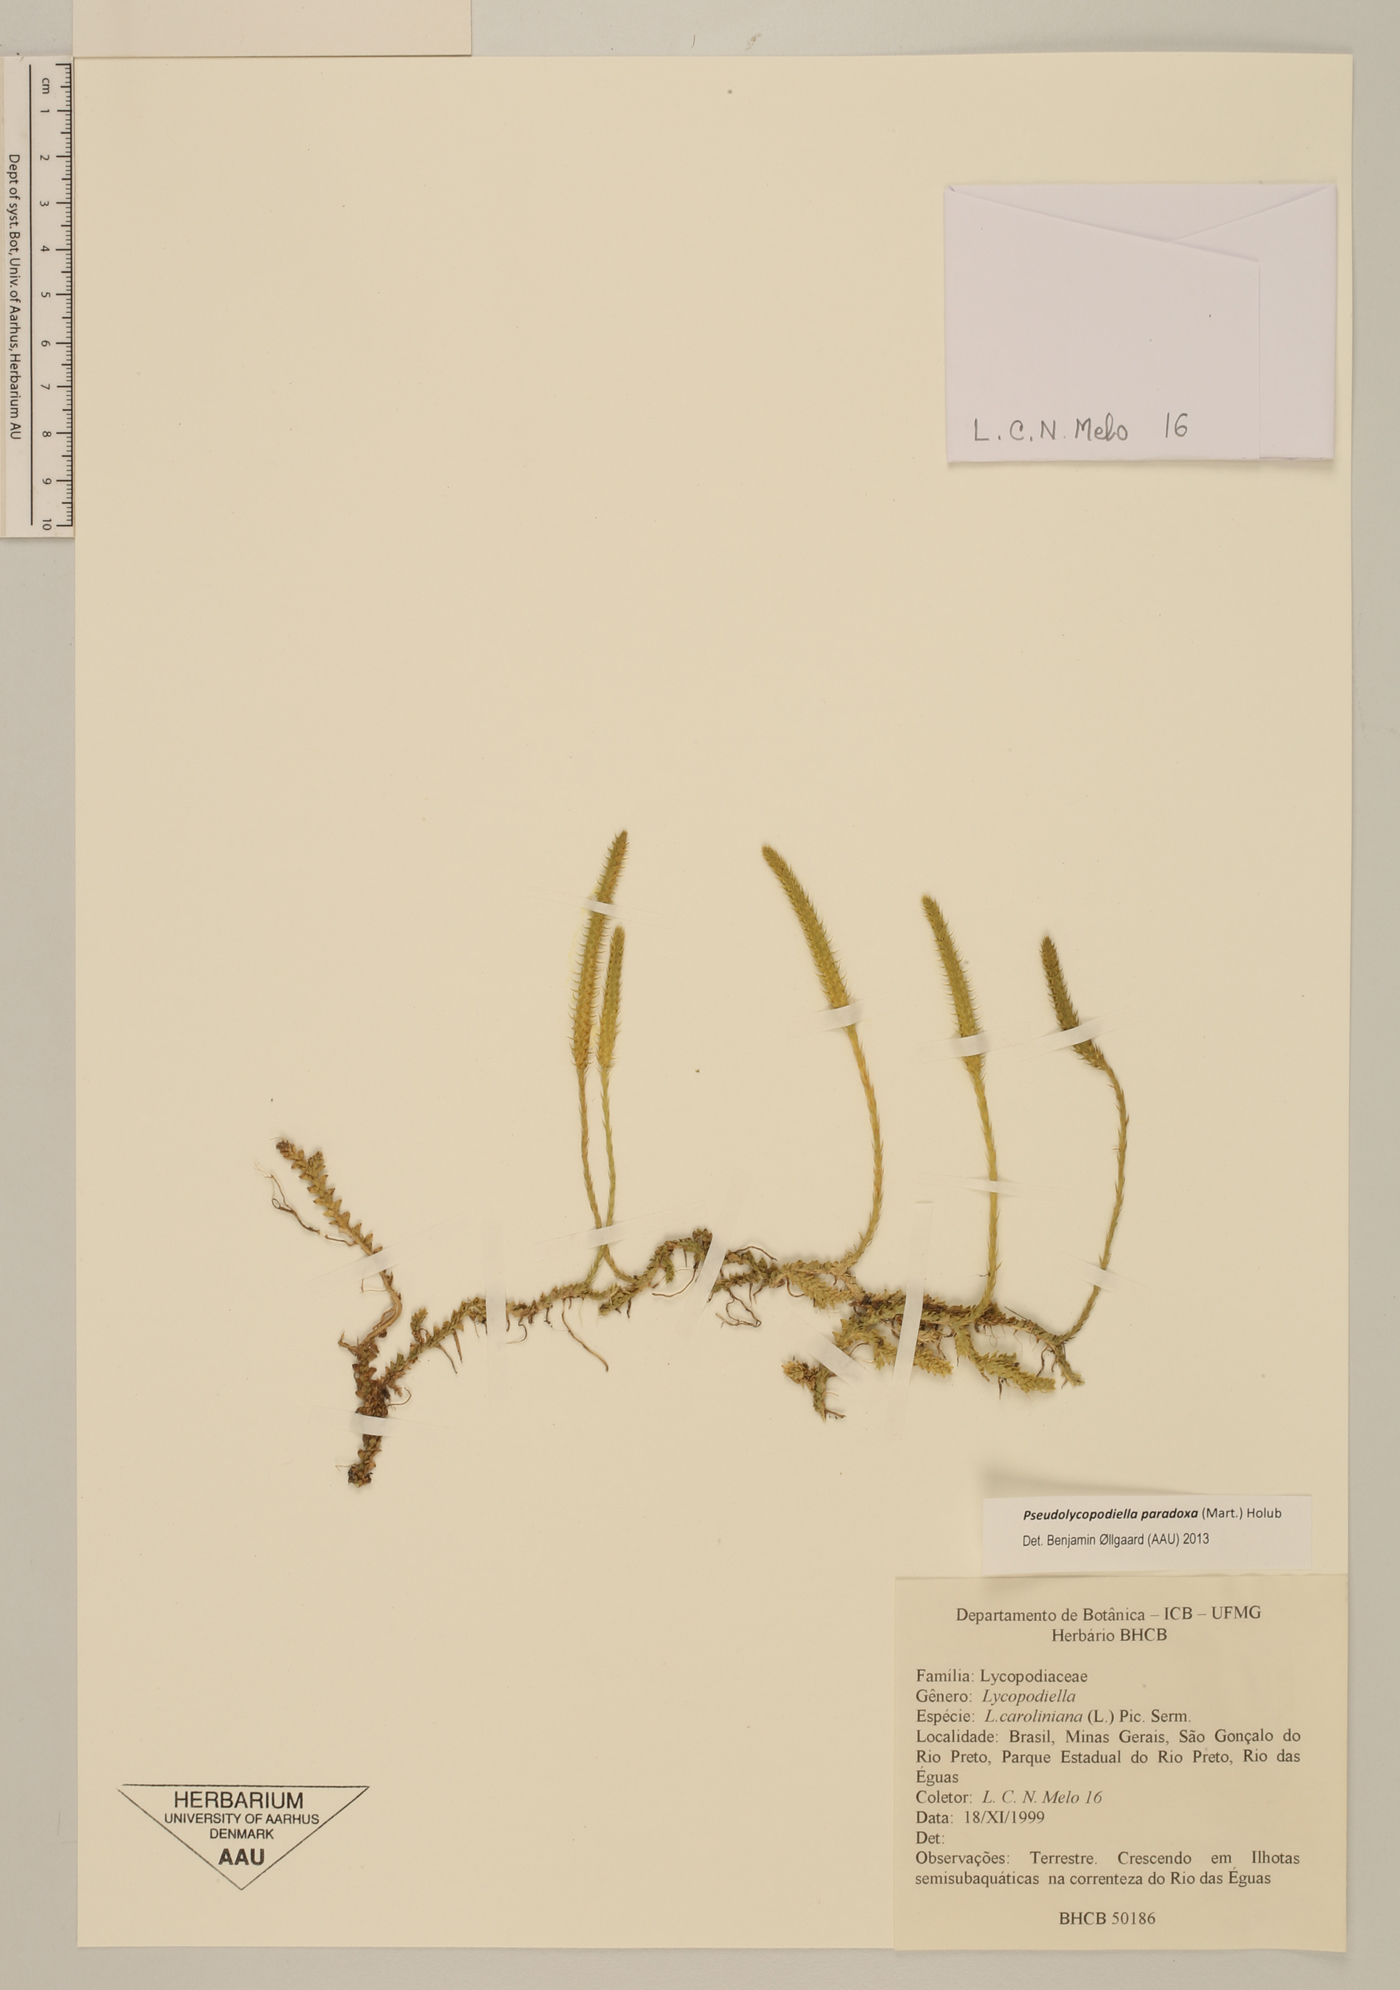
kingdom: Plantae
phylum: Tracheophyta
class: Lycopodiopsida
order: Lycopodiales
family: Lycopodiaceae
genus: Pseudolycopodiella
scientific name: Pseudolycopodiella paradoxa
